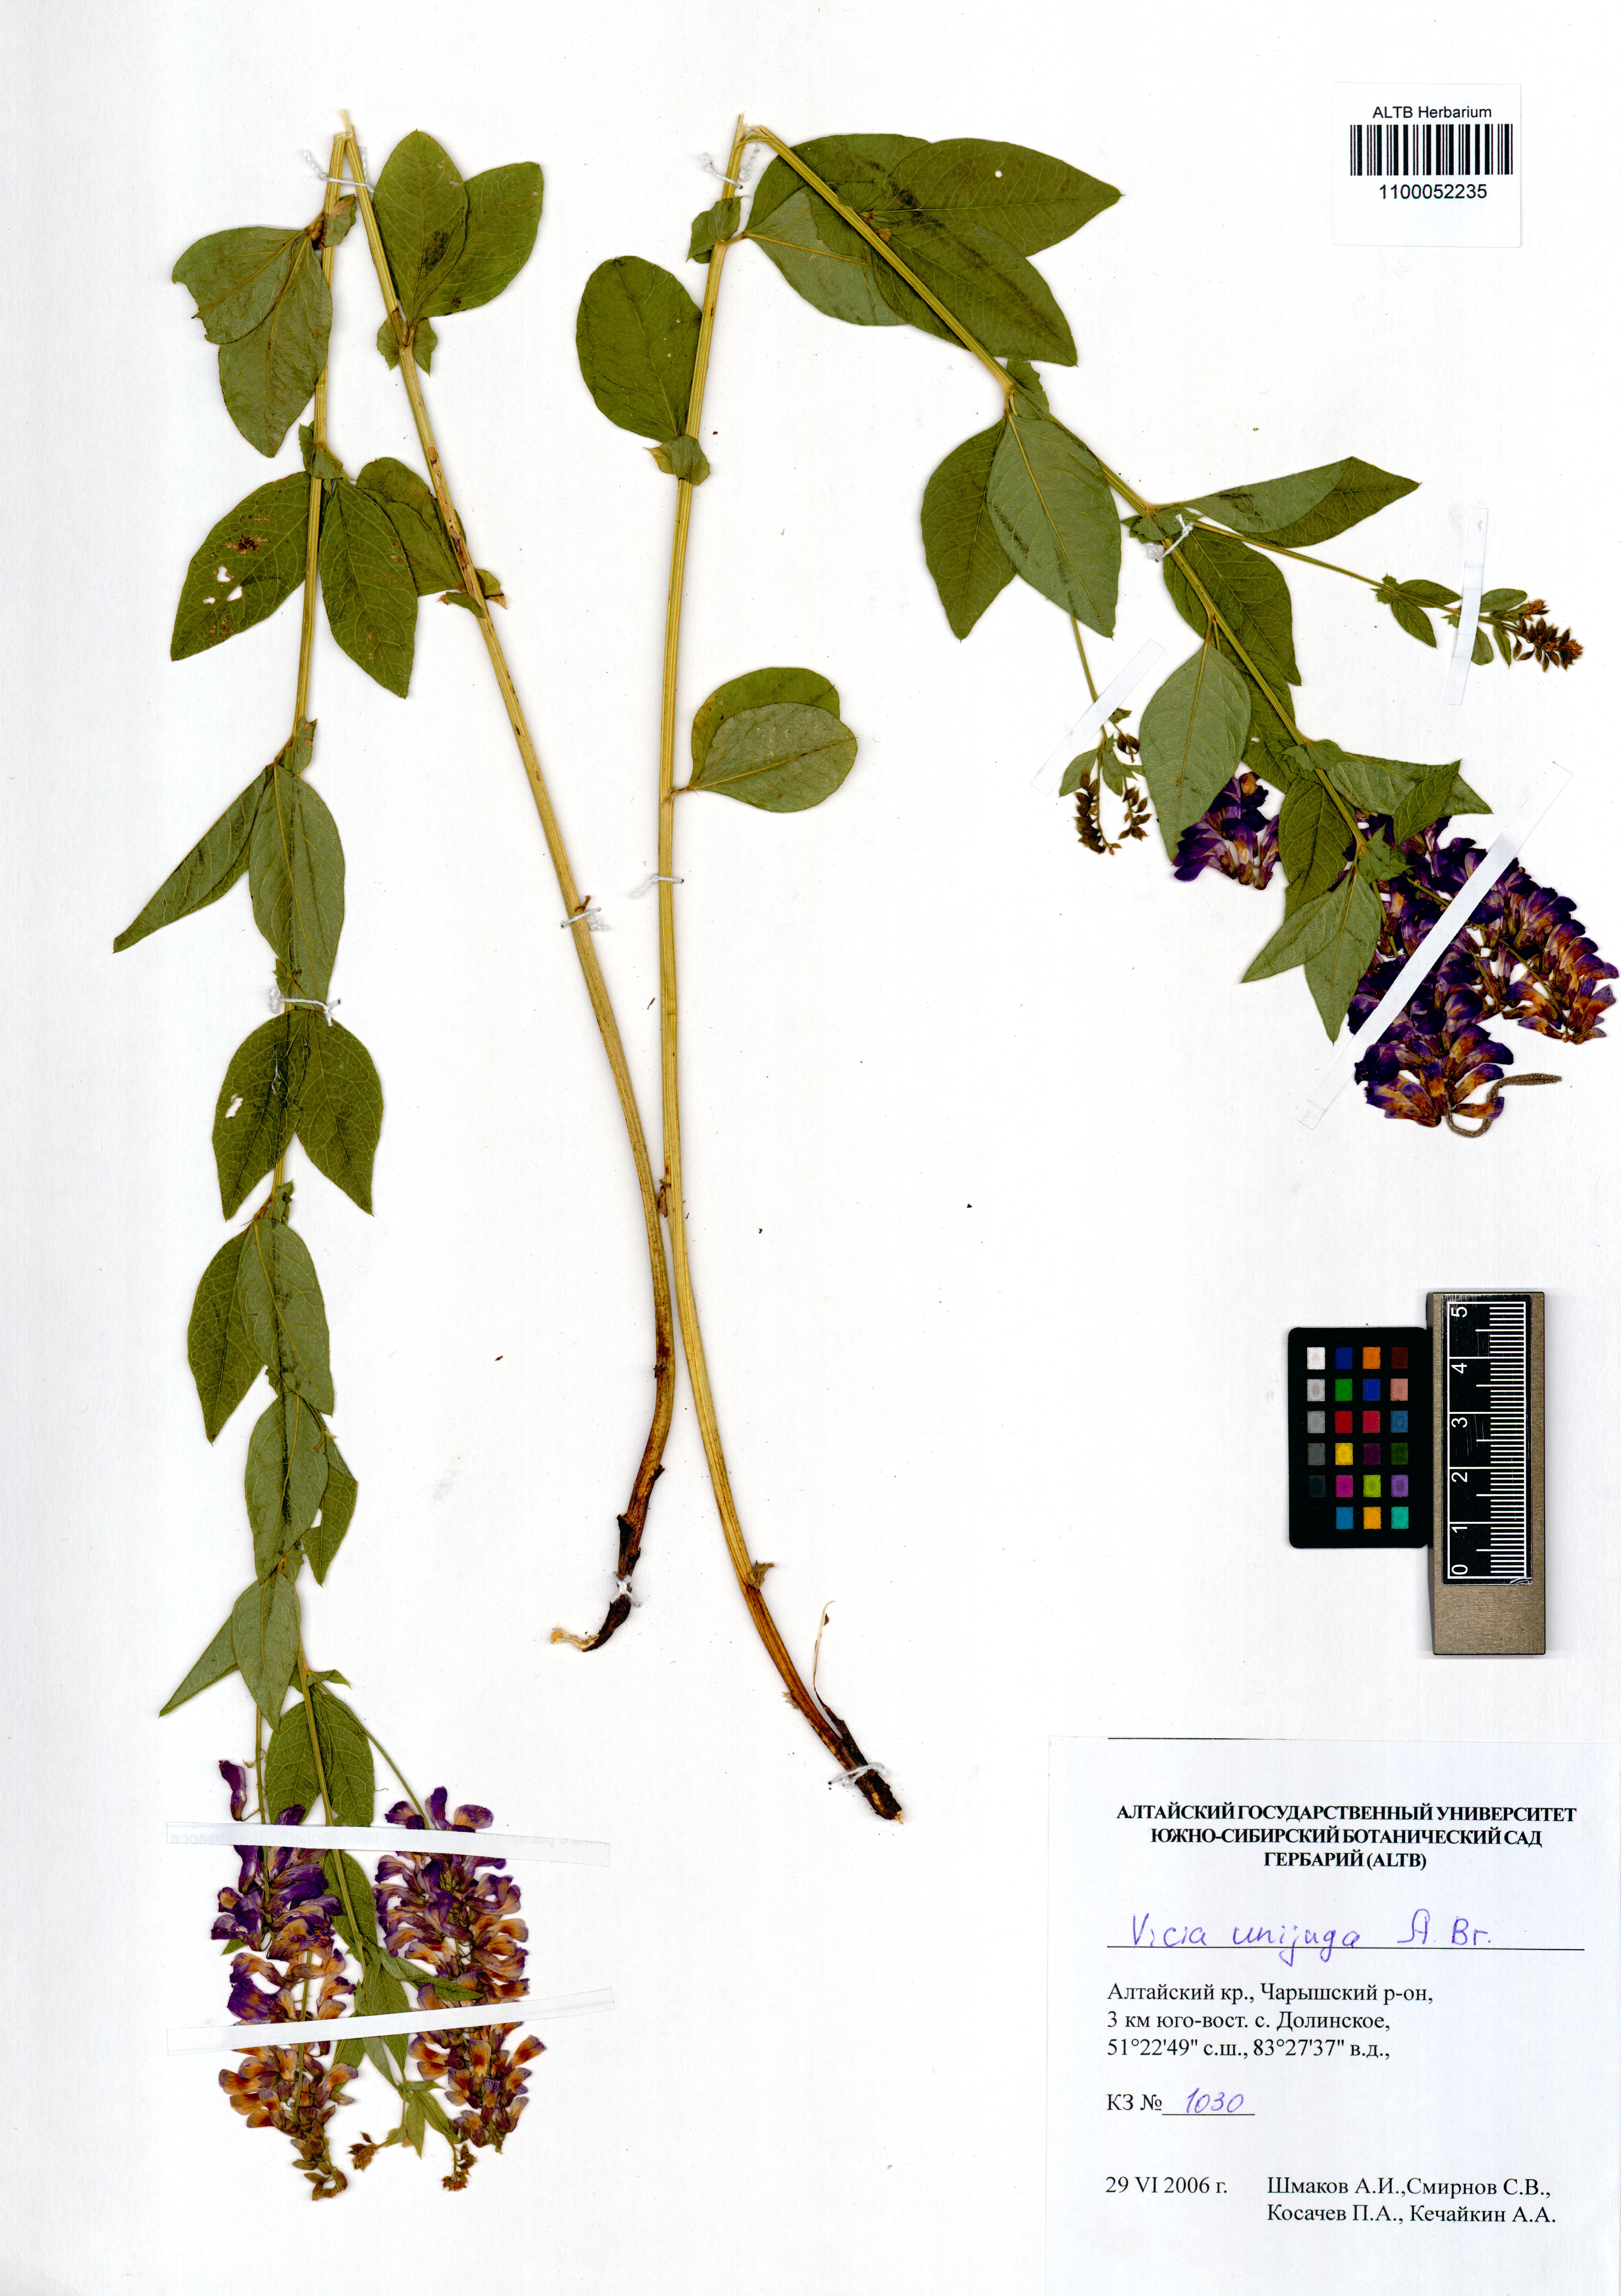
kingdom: Plantae
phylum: Tracheophyta
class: Magnoliopsida
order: Fabales
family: Fabaceae
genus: Vicia
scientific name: Vicia unijuga
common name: Two-leaf vetch
